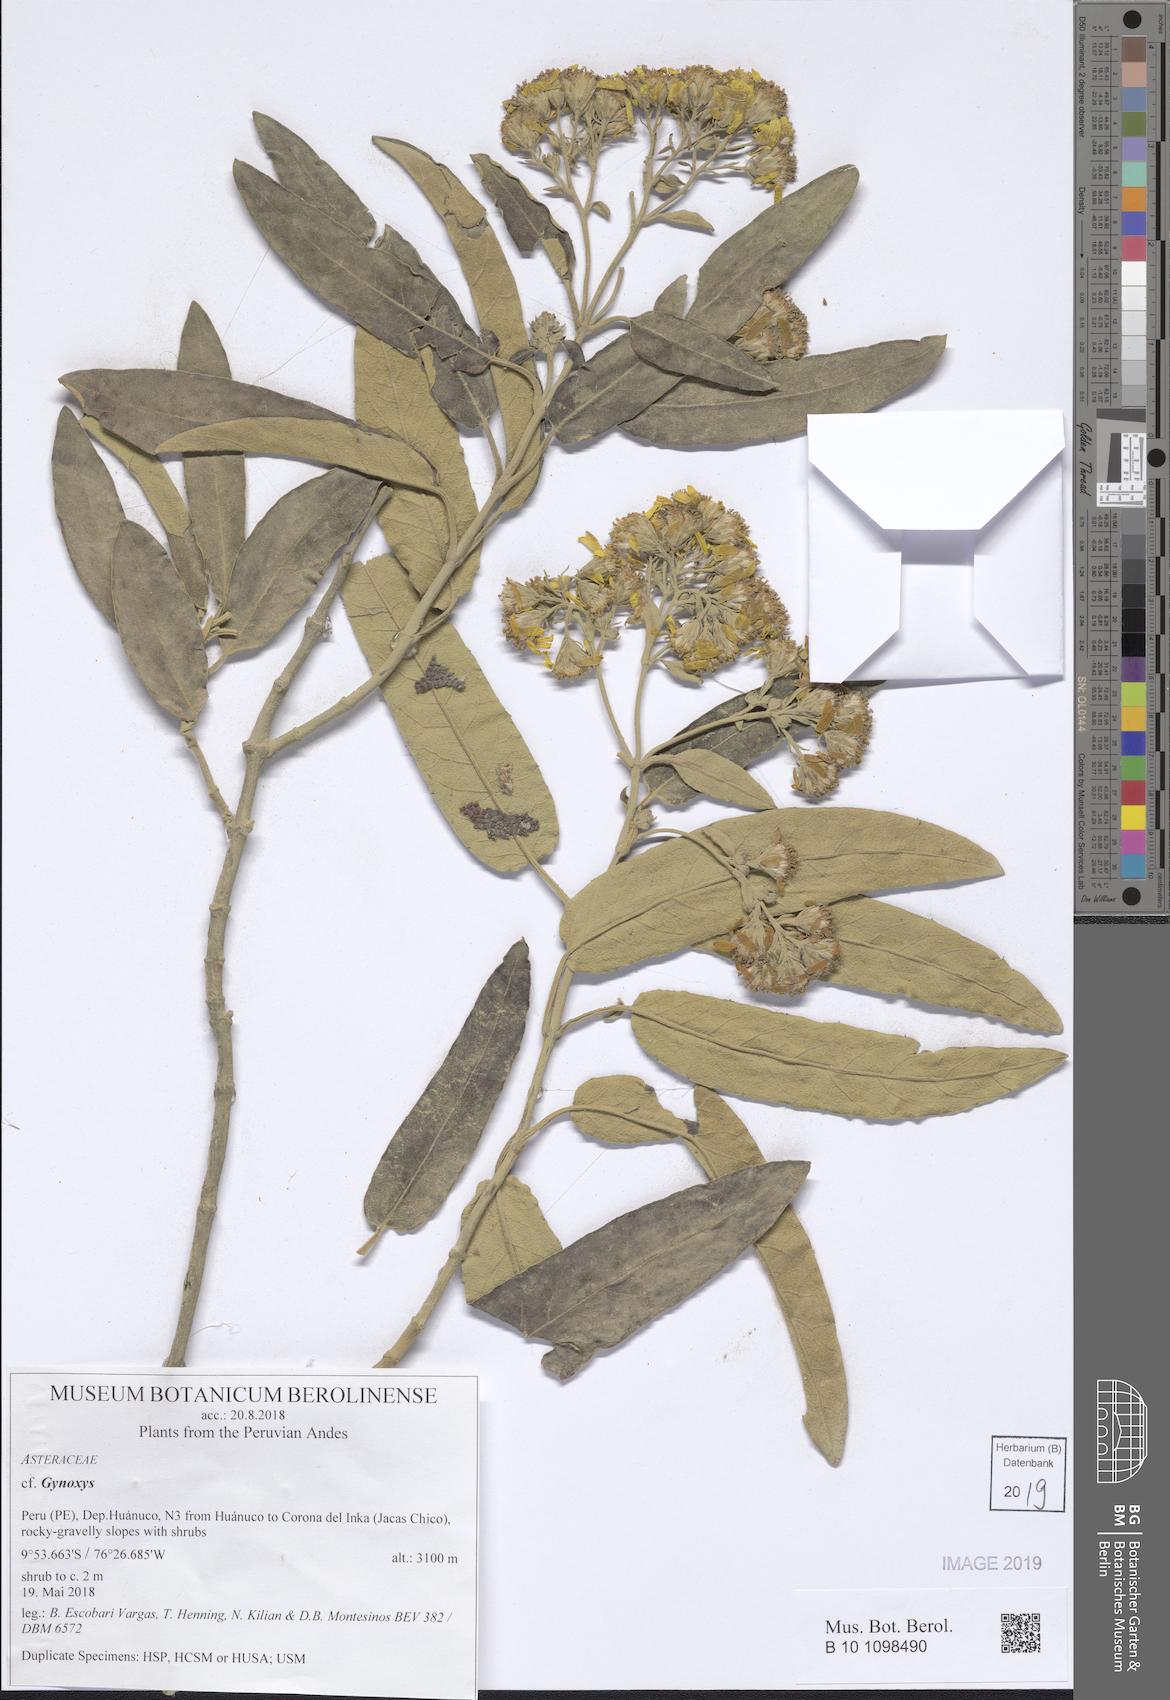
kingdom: Plantae
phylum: Tracheophyta
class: Magnoliopsida
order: Asterales
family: Asteraceae
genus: Gynoxys
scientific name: Gynoxys
